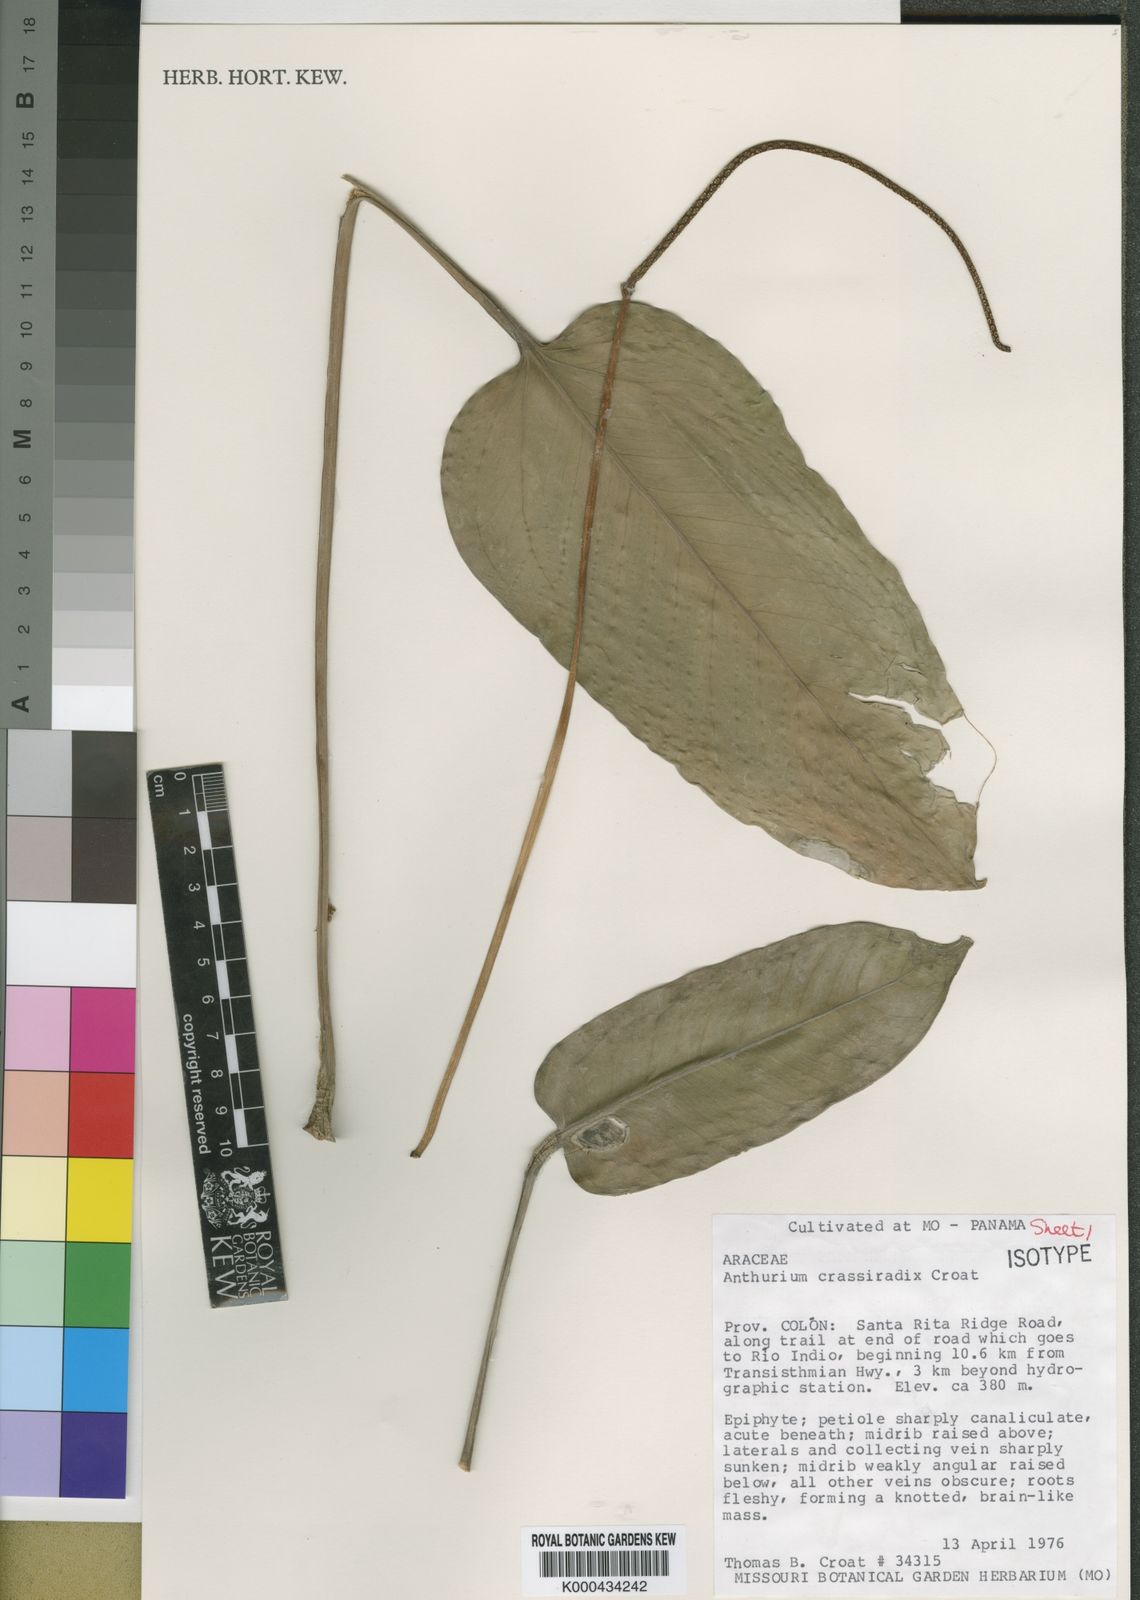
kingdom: Plantae
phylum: Tracheophyta
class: Liliopsida
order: Alismatales
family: Araceae
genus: Anthurium
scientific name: Anthurium crassiradix
